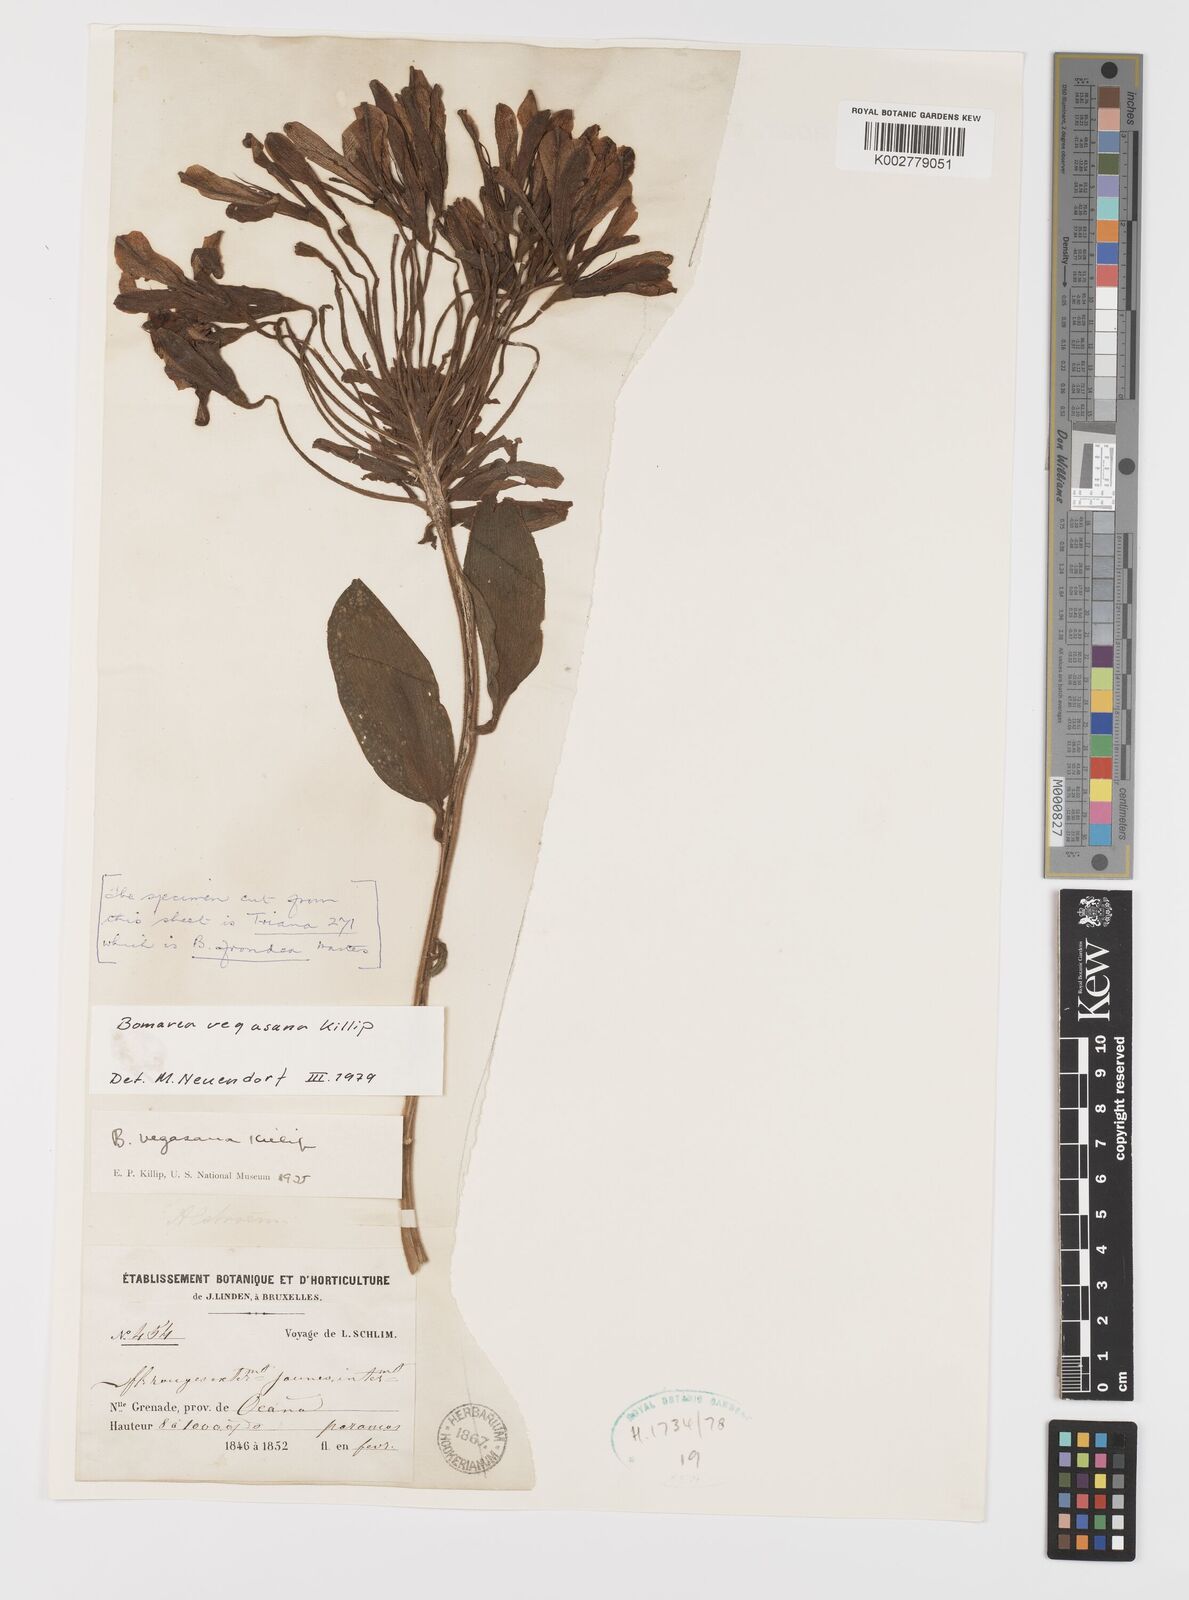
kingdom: Plantae
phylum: Tracheophyta
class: Liliopsida
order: Liliales
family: Alstroemeriaceae
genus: Bomarea
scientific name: Bomarea multiflora
